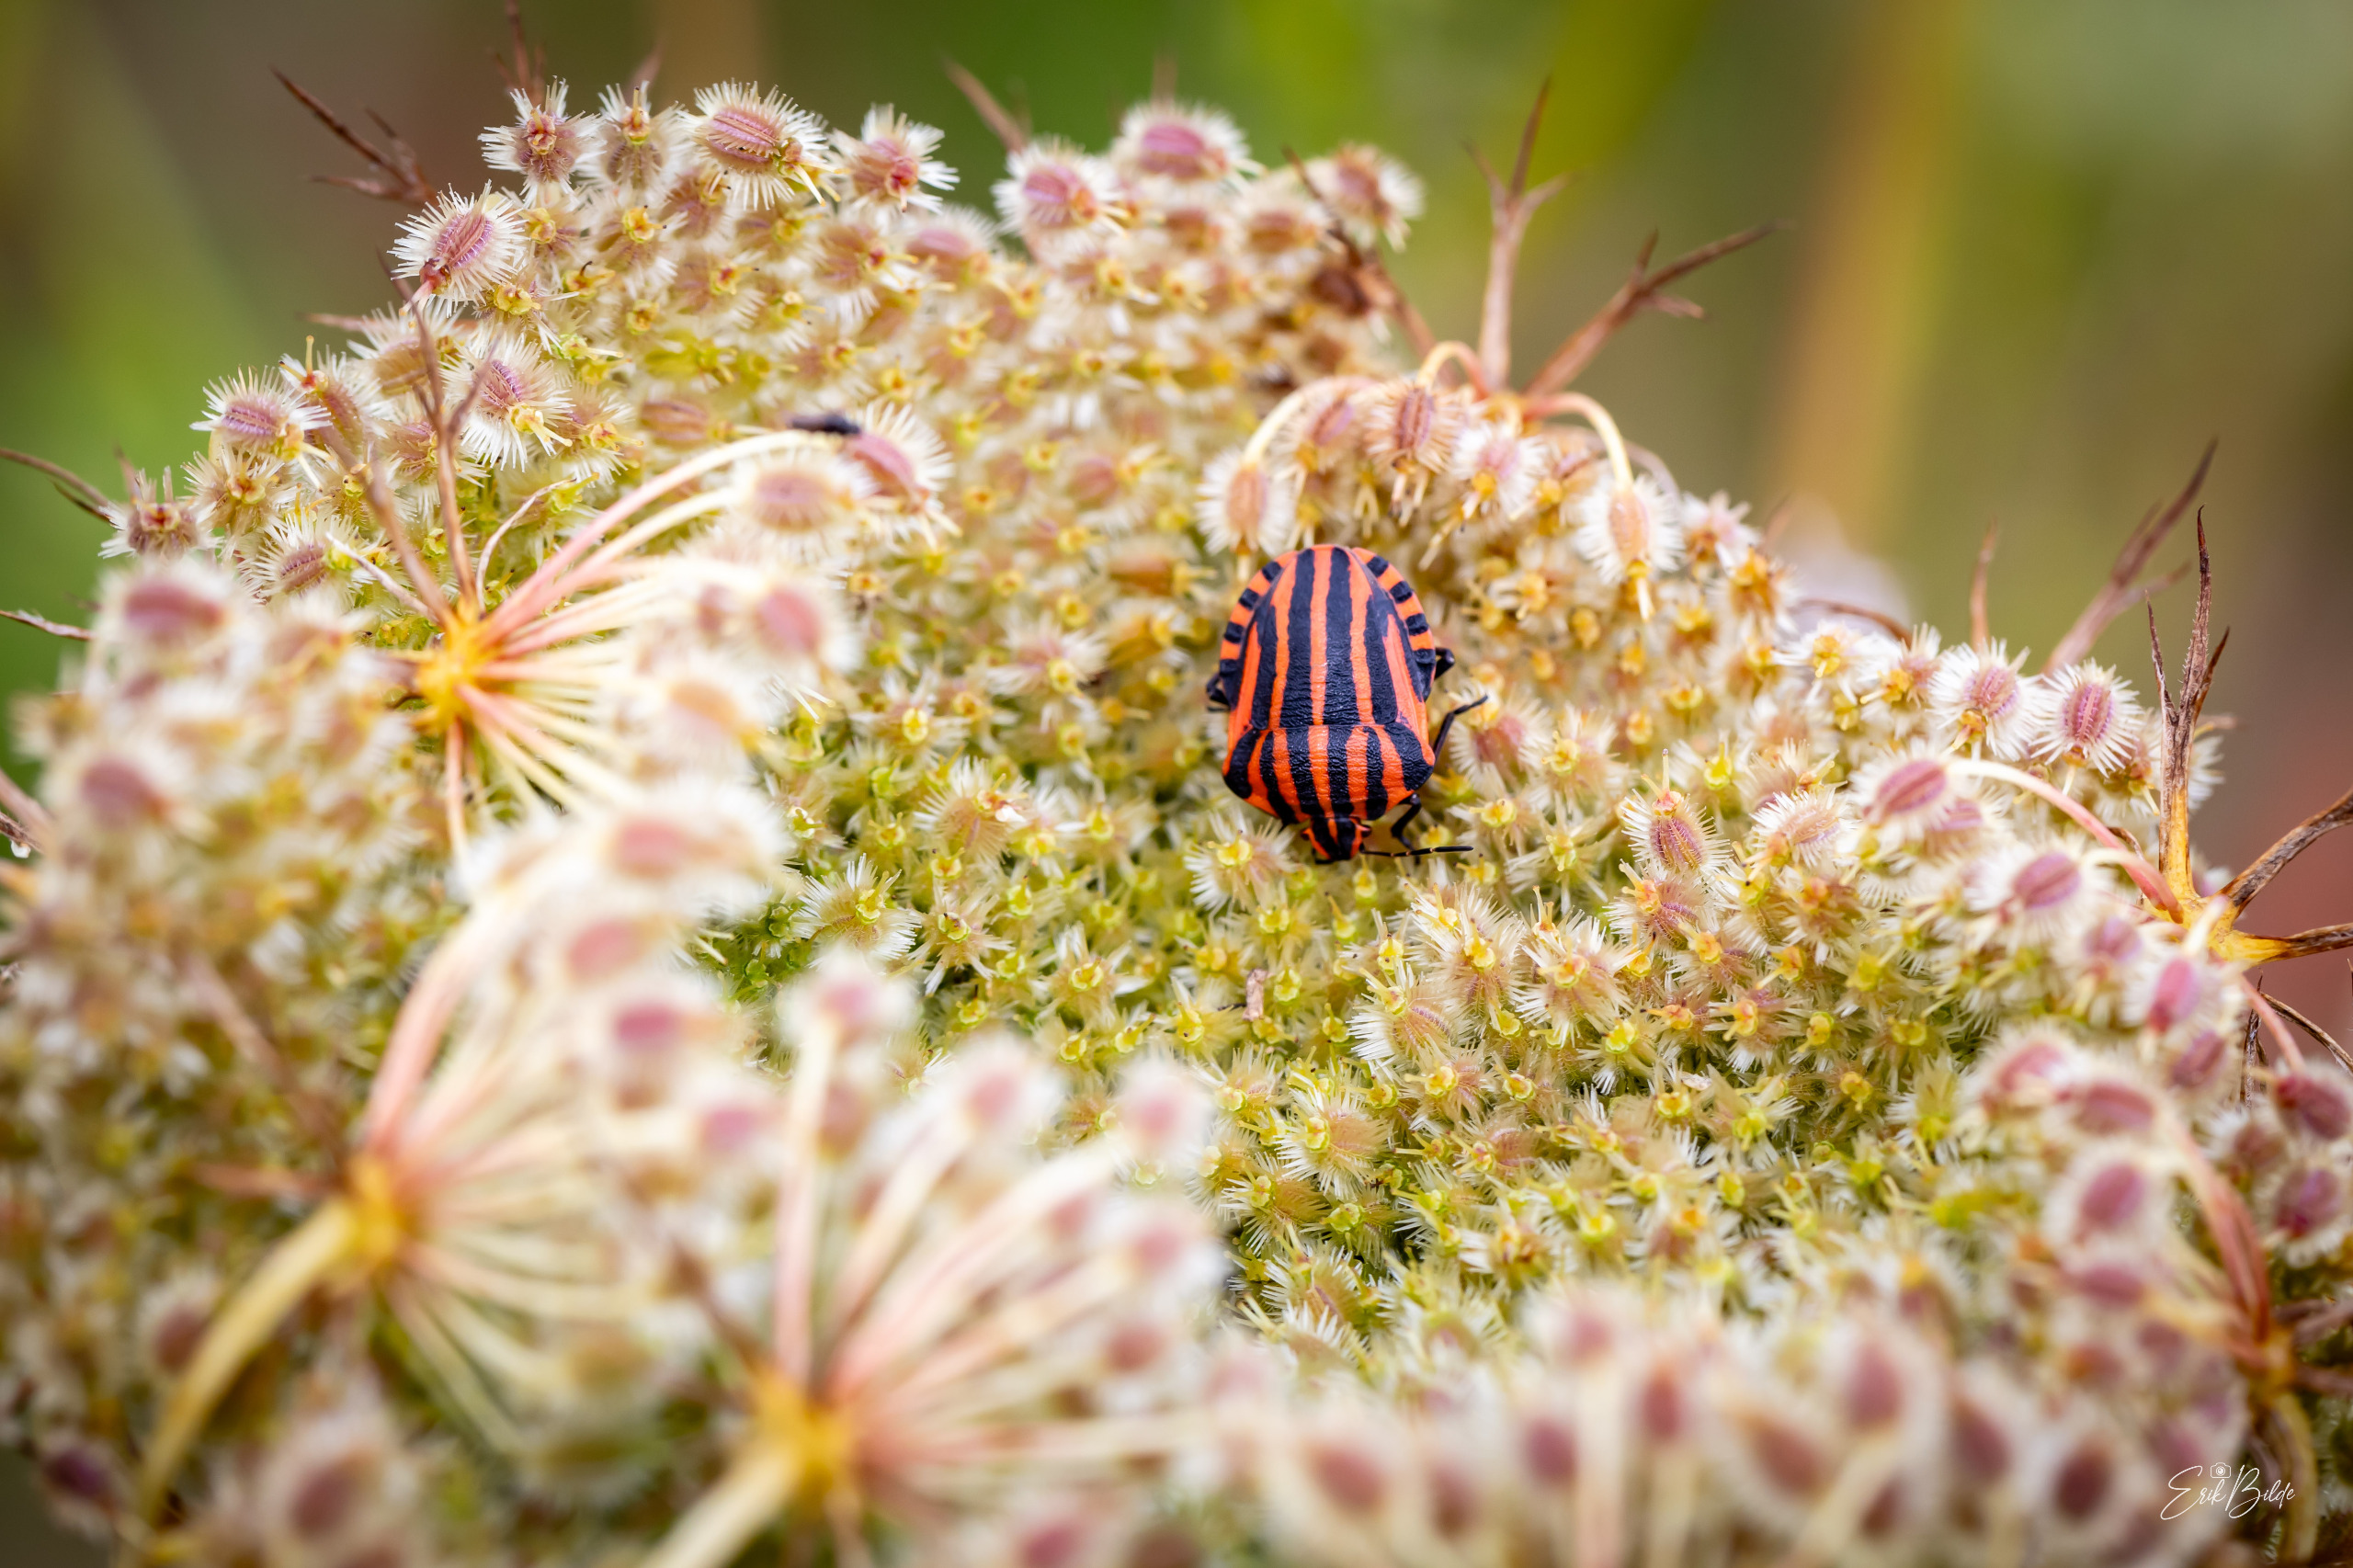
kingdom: Animalia
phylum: Arthropoda
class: Insecta
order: Hemiptera
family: Pentatomidae
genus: Graphosoma
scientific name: Graphosoma italicum
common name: Stribetæge
